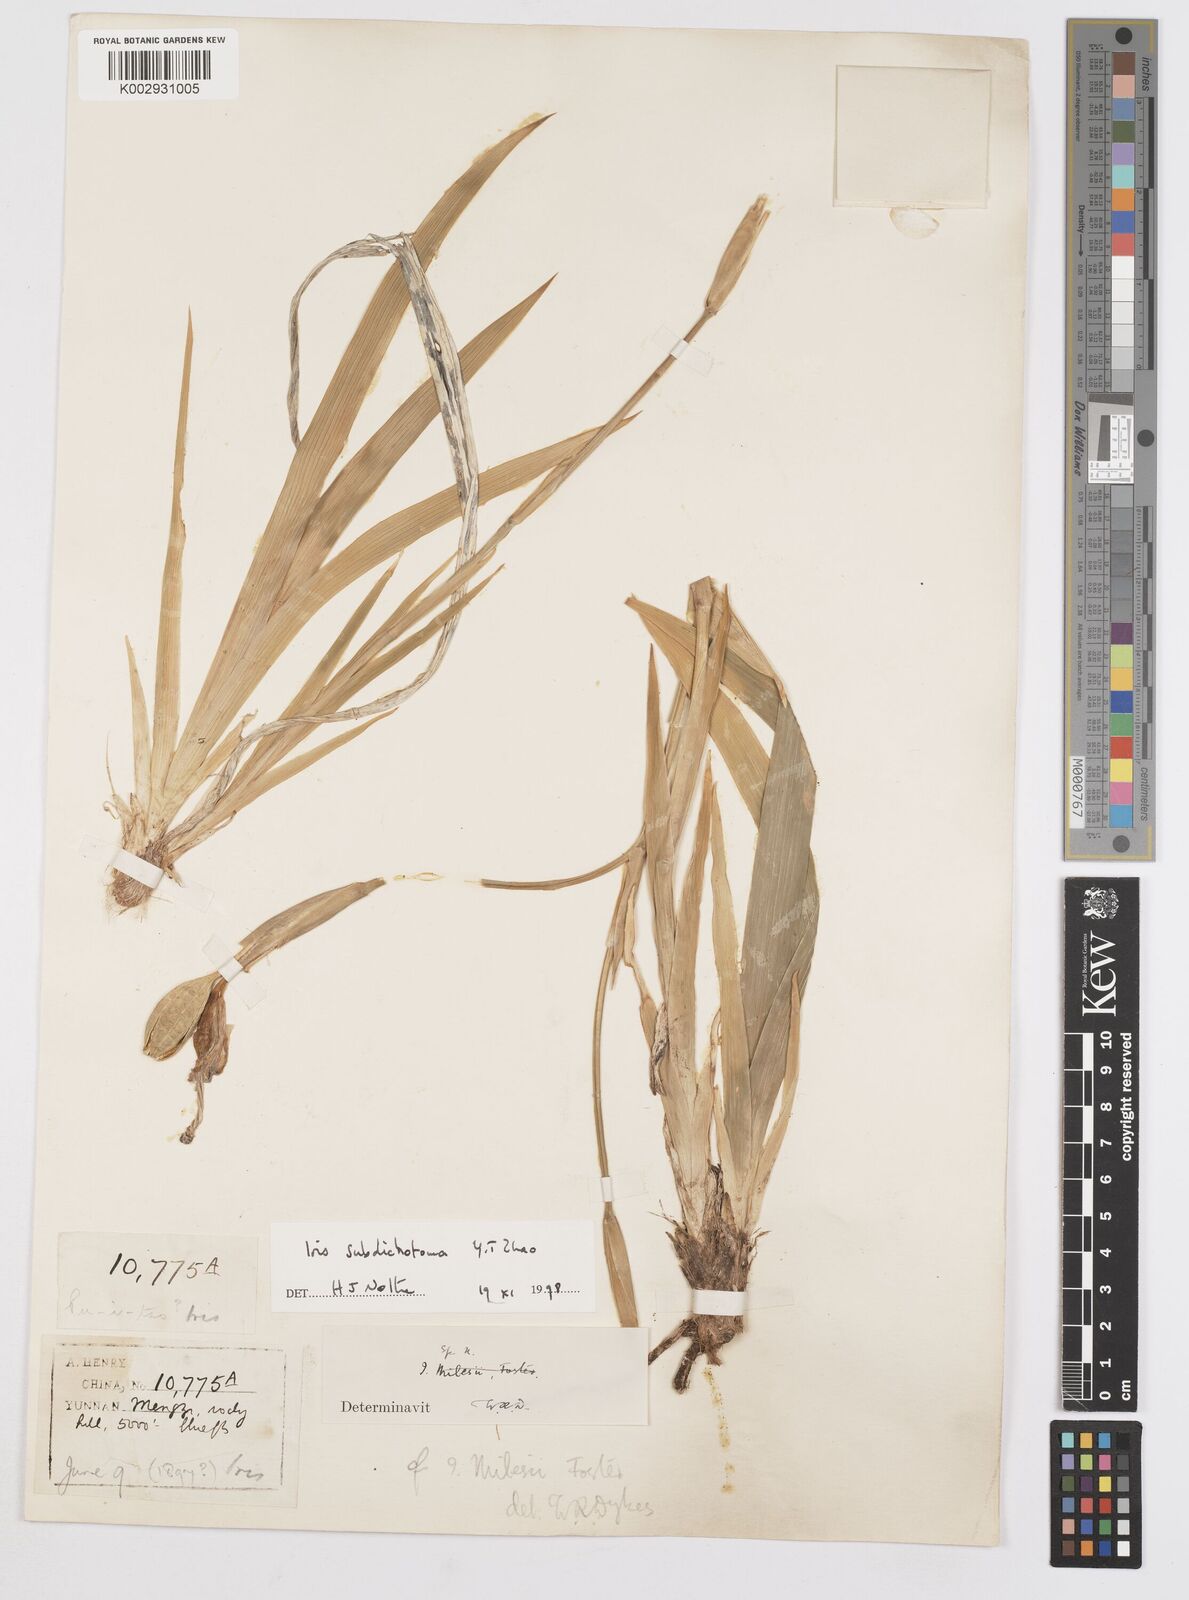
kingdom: Plantae
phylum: Tracheophyta
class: Liliopsida
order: Asparagales
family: Iridaceae
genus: Iris
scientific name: Iris subdichotoma
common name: Zhongdian iris
